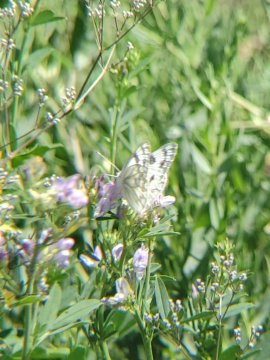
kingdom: Animalia
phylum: Arthropoda
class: Insecta
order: Lepidoptera
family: Pieridae
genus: Pontia
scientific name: Pontia occidentalis
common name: Western White
